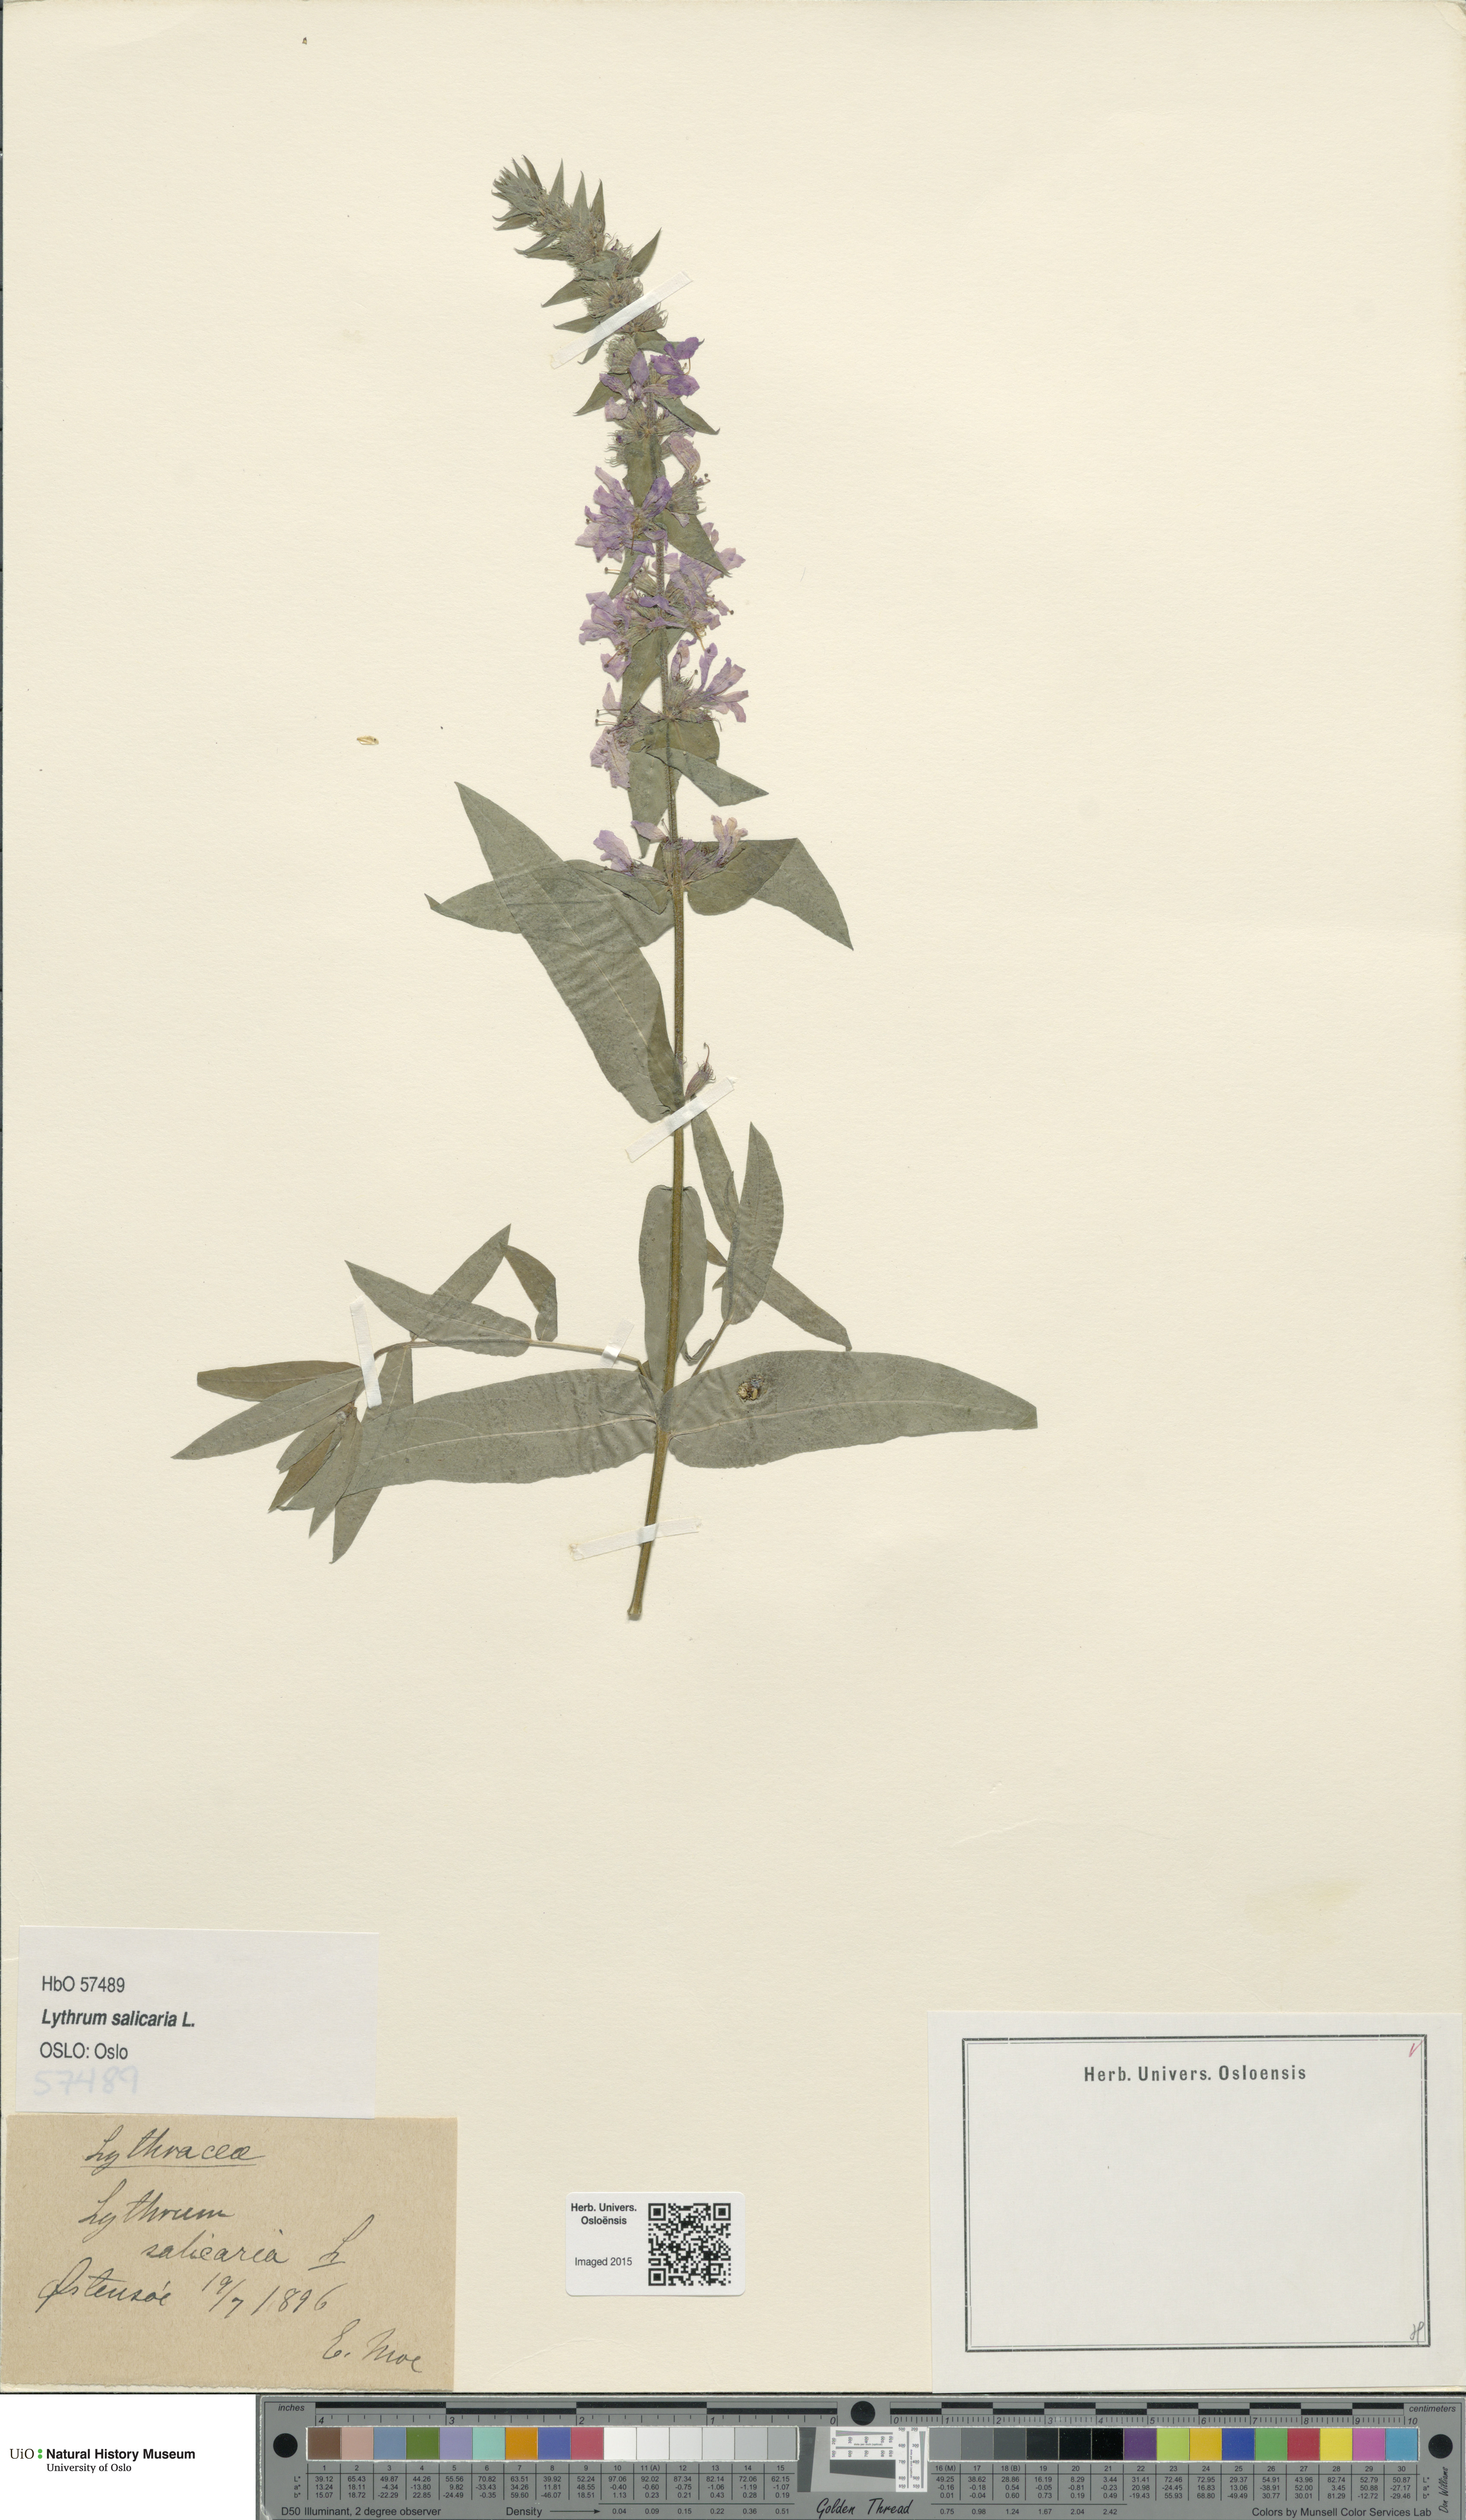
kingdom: Plantae
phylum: Tracheophyta
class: Magnoliopsida
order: Myrtales
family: Lythraceae
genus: Lythrum
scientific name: Lythrum salicaria
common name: Purple loosestrife
